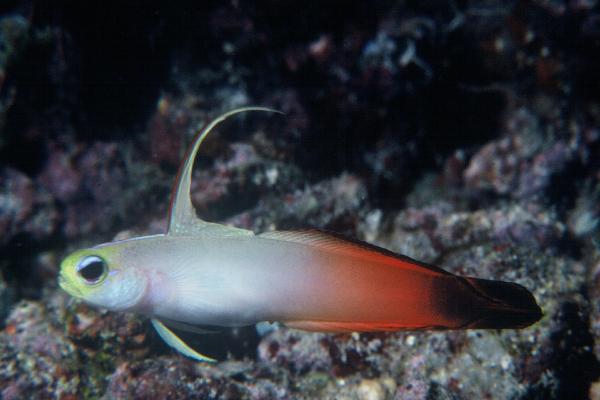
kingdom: Animalia
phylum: Chordata
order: Perciformes
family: Microdesmidae
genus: Nemateleotris
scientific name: Nemateleotris magnifica
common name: Fire goby
